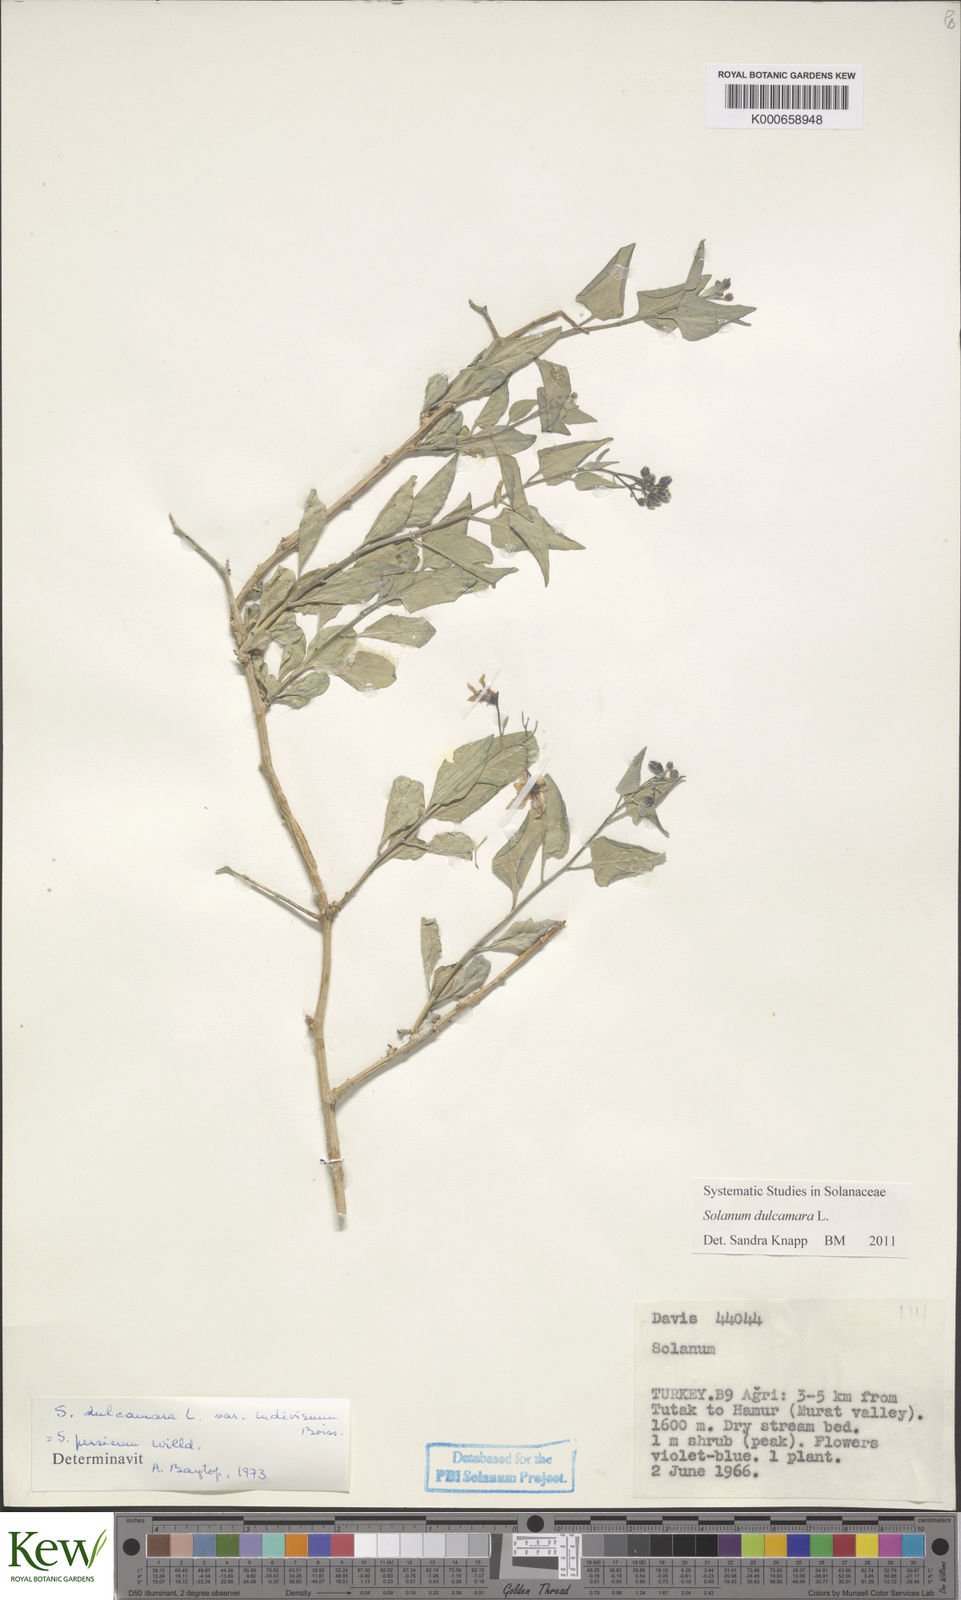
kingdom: Plantae
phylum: Tracheophyta
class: Magnoliopsida
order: Solanales
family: Solanaceae
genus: Solanum
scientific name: Solanum dulcamara
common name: Climbing nightshade
